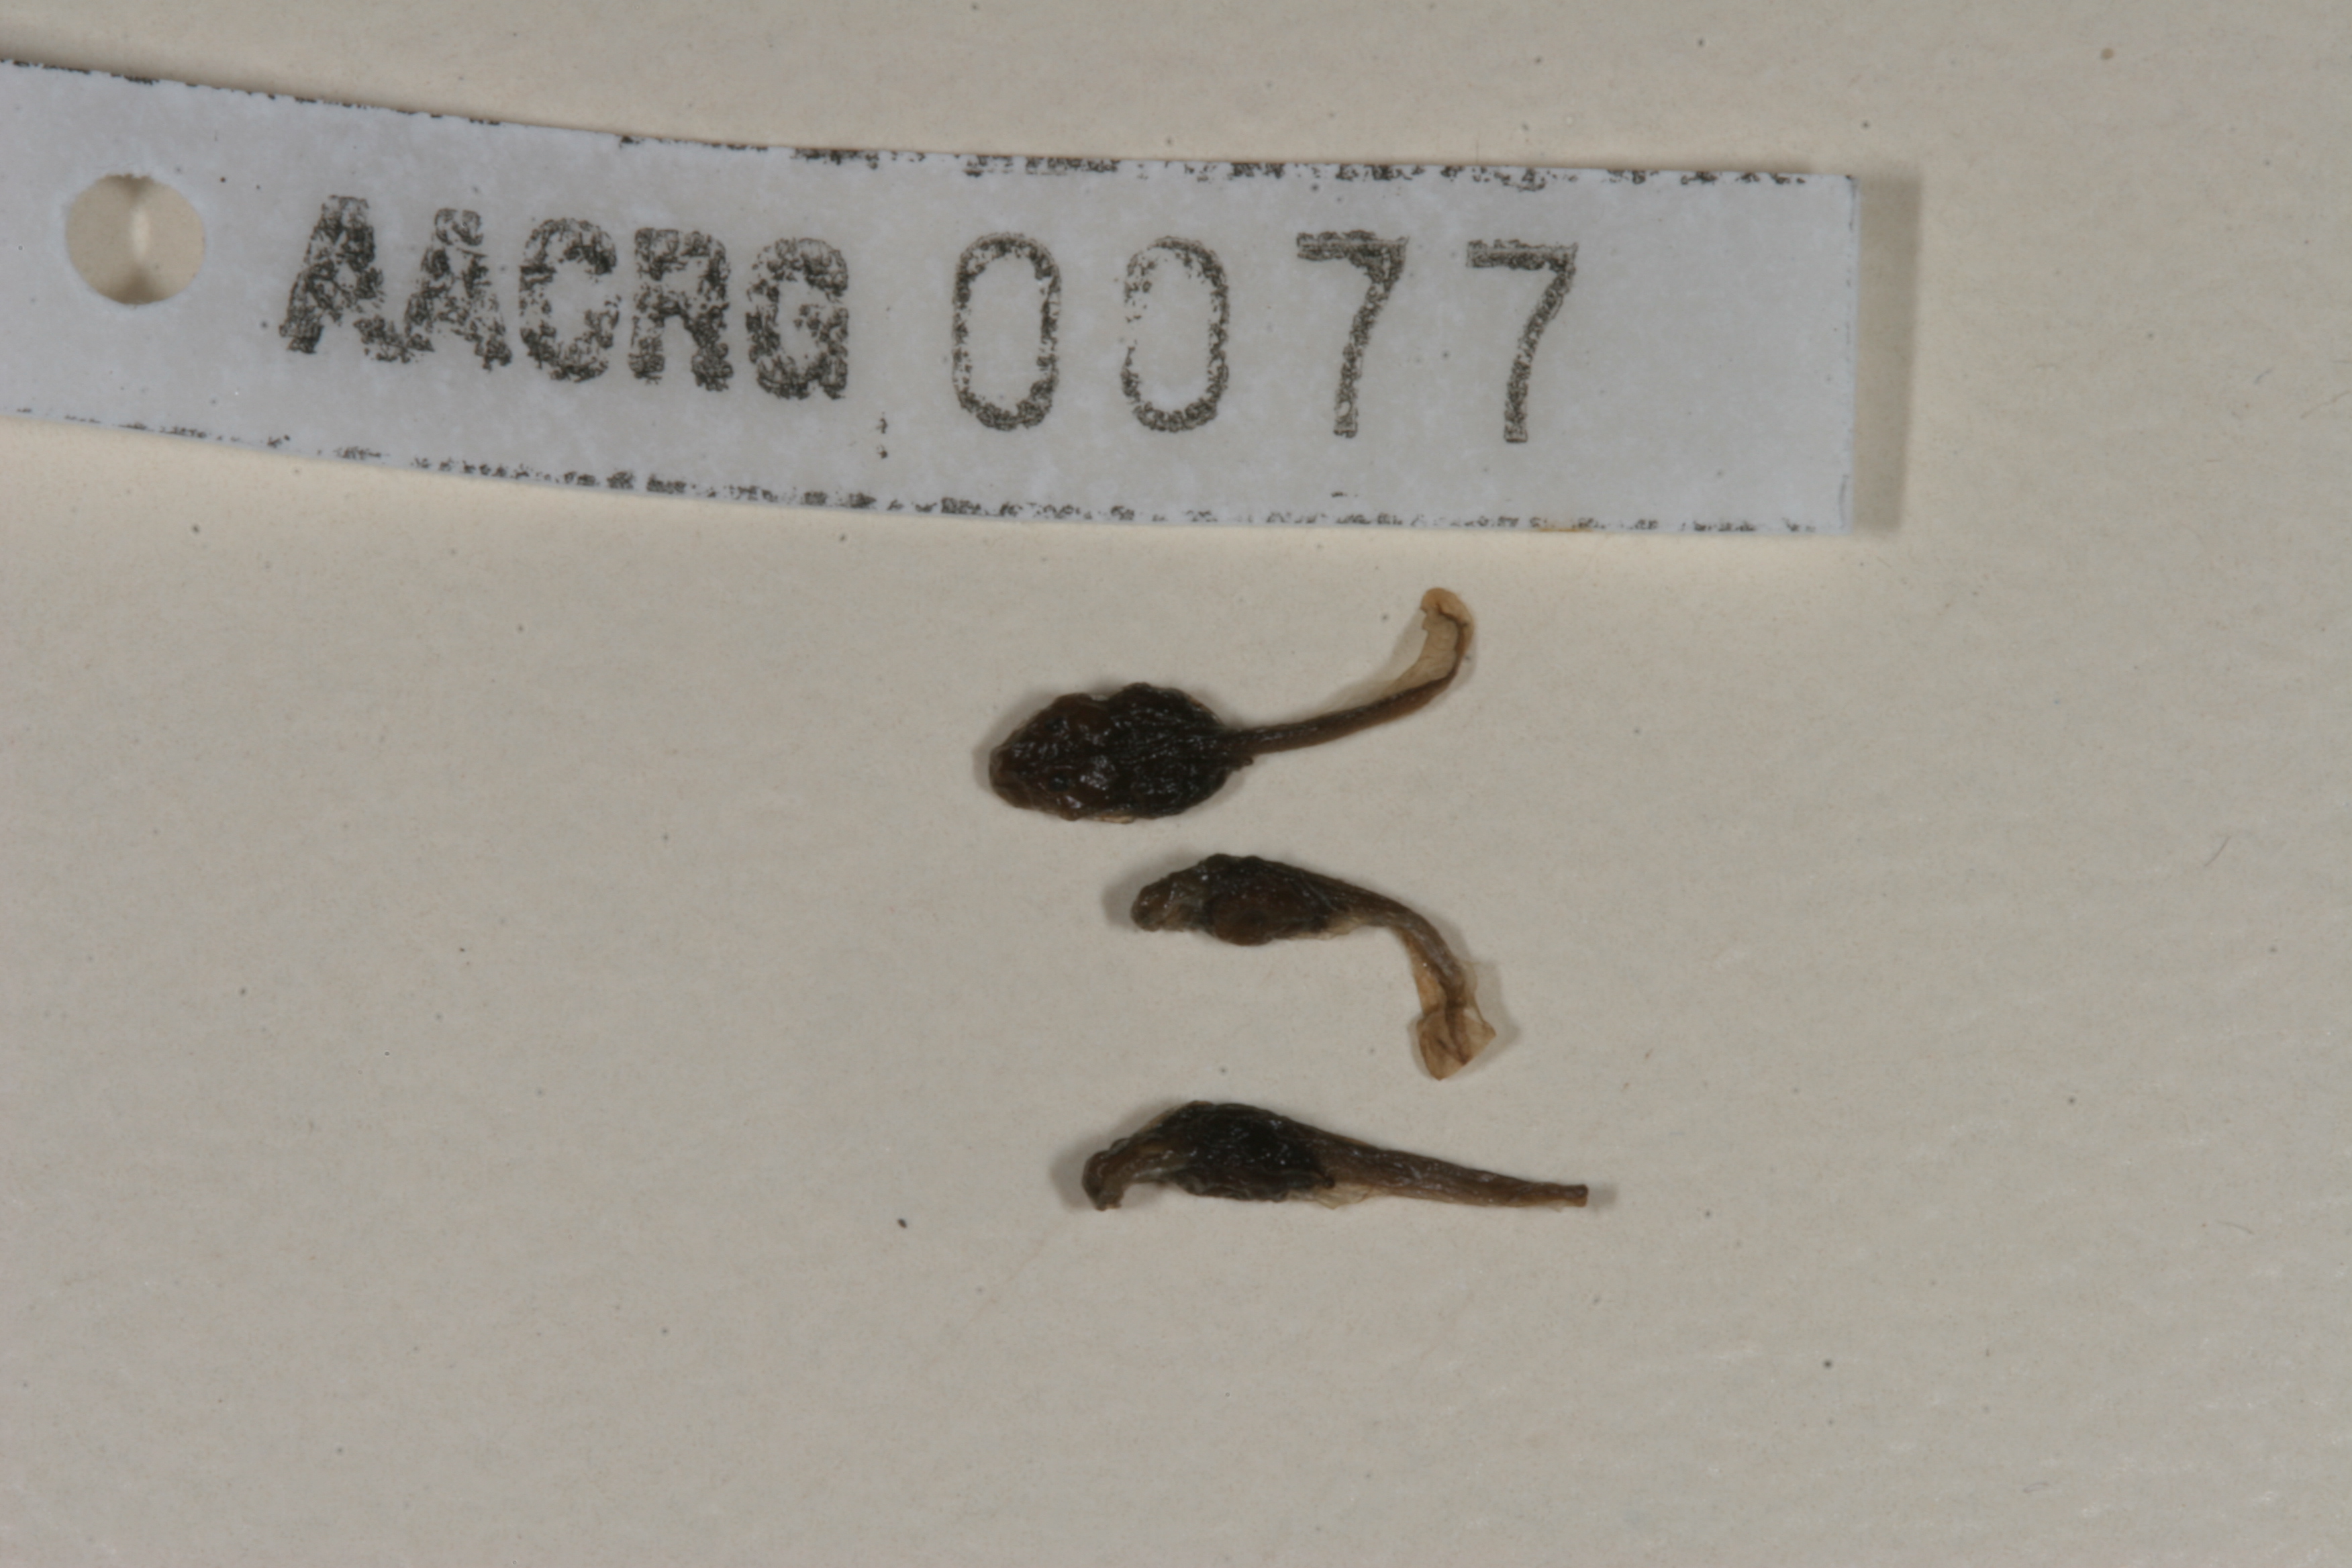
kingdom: Animalia
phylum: Chordata
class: Amphibia
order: Anura
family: Bufonidae
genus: Vandijkophrynus
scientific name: Vandijkophrynus gariepensis
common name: Gariep toad
